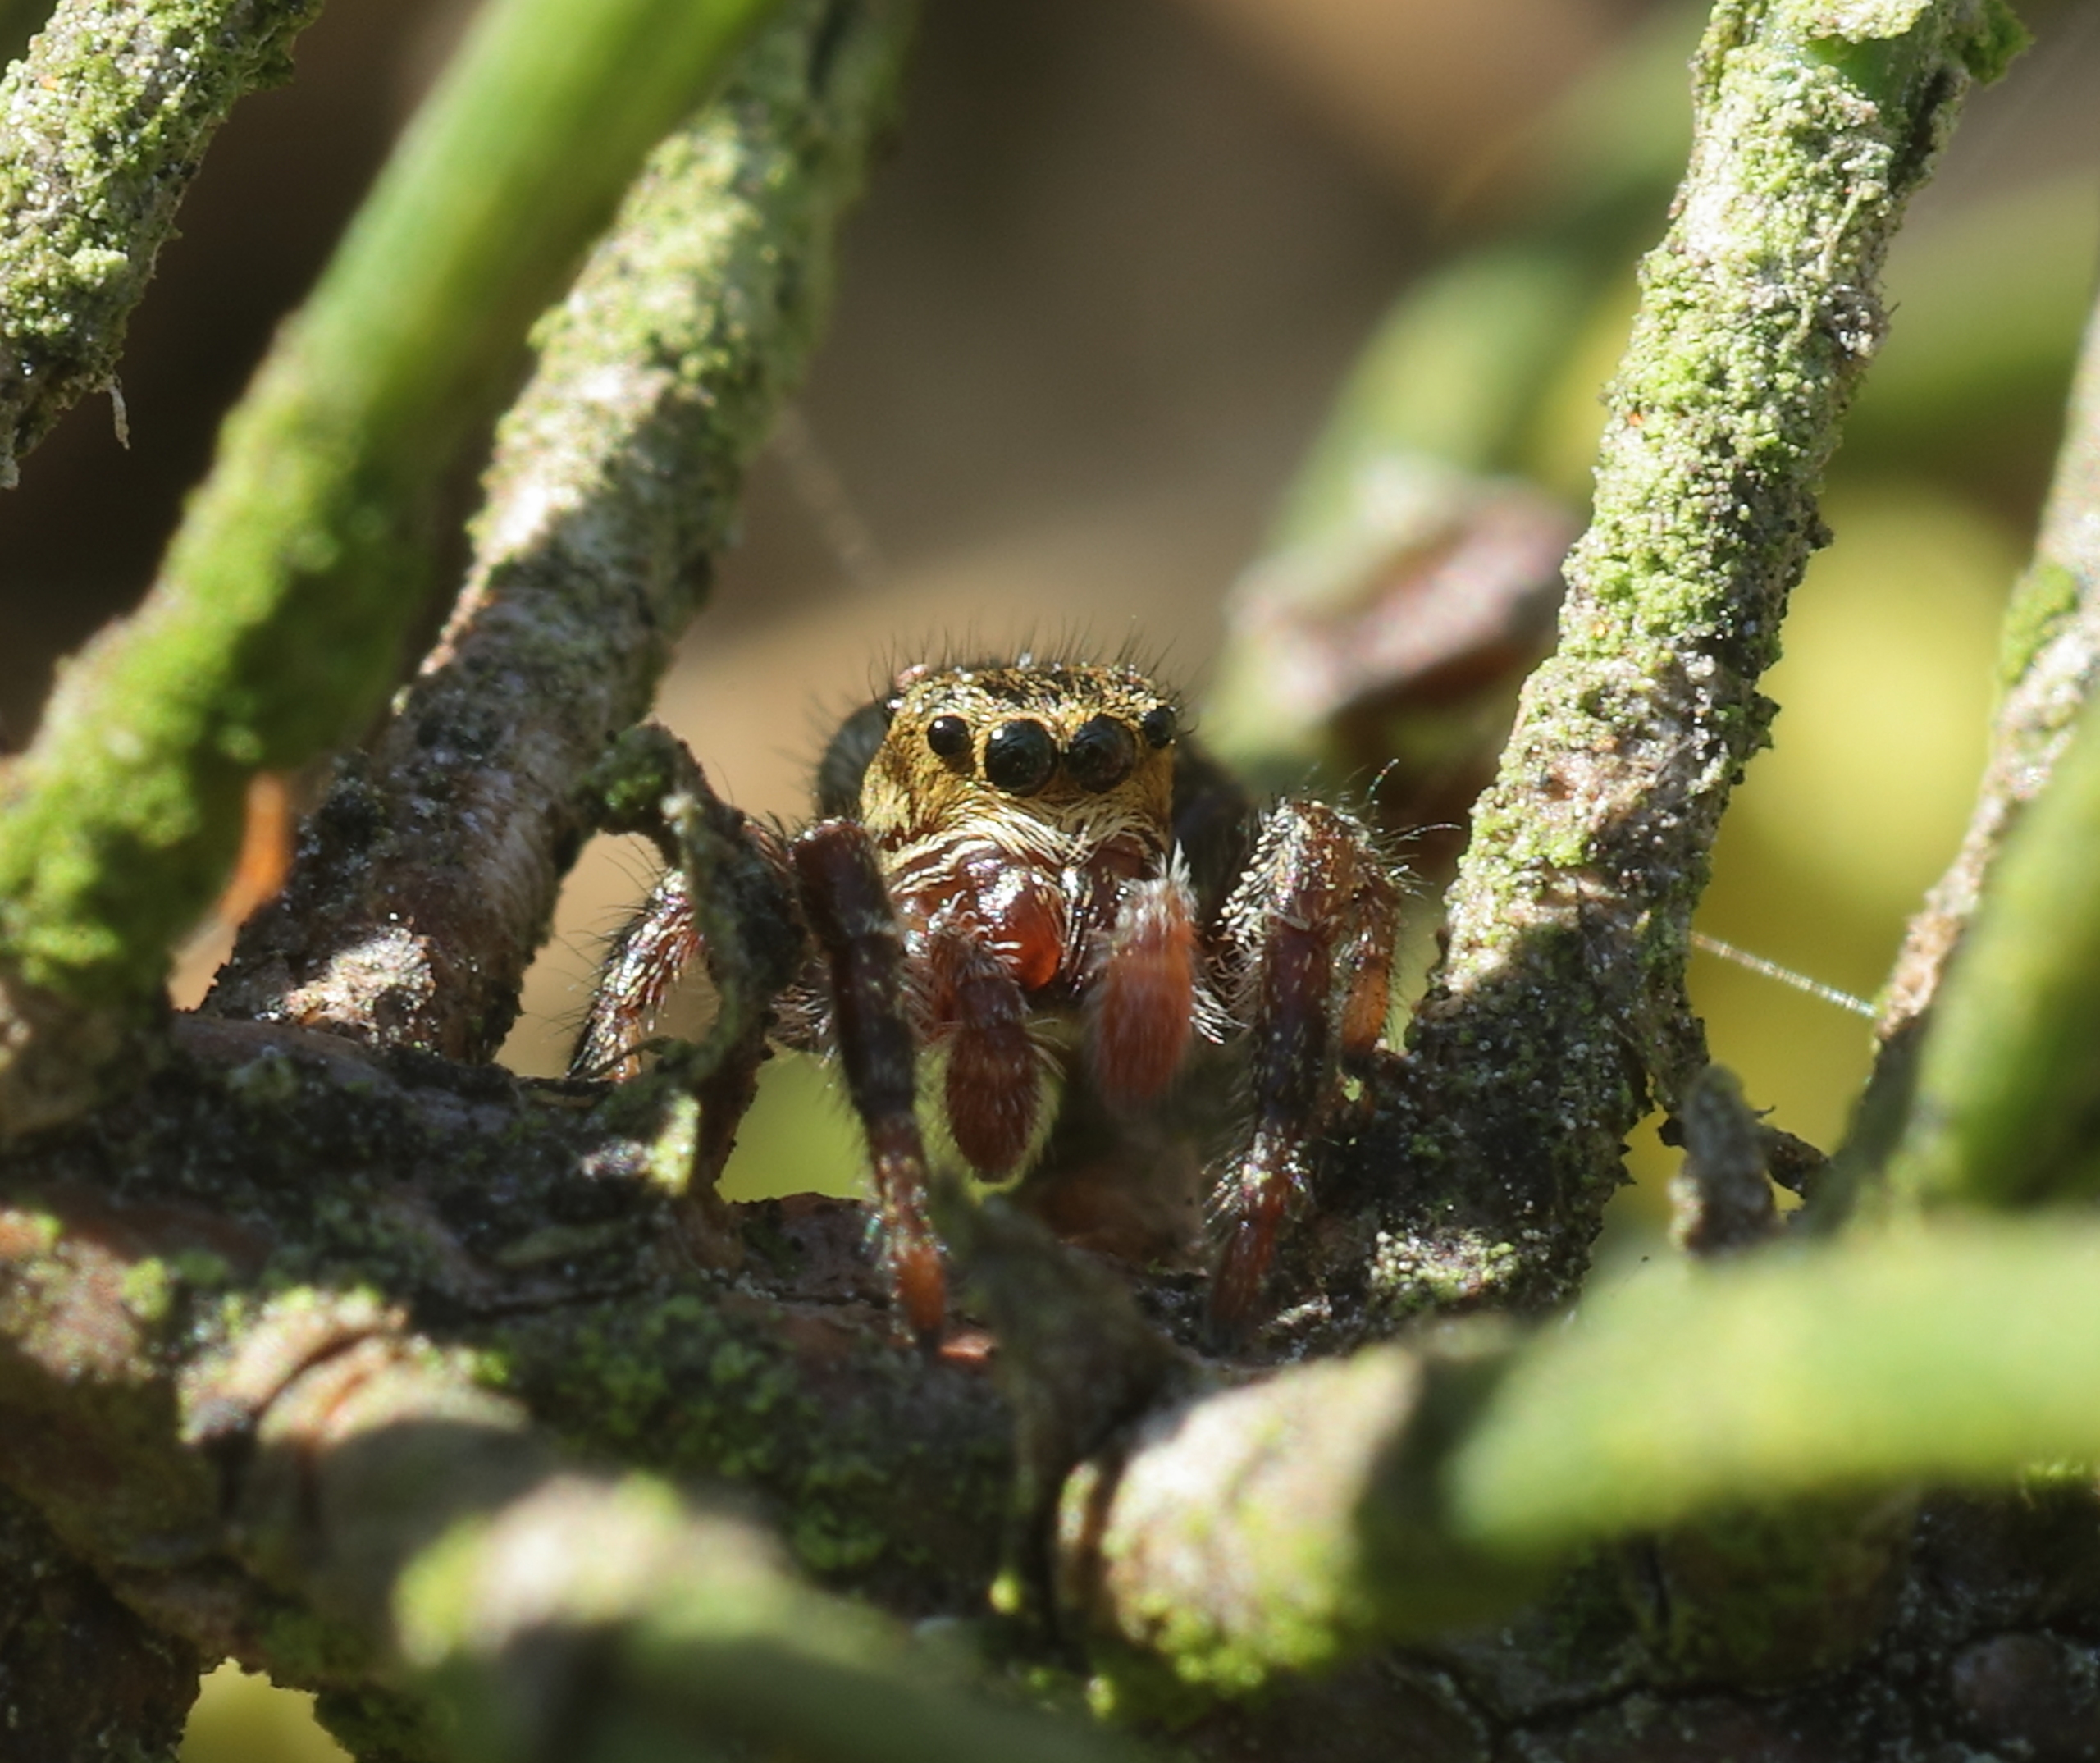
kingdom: Animalia
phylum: Arthropoda
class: Arachnida
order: Araneae
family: Salticidae
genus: Dendryphantes
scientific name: Dendryphantes rudis
